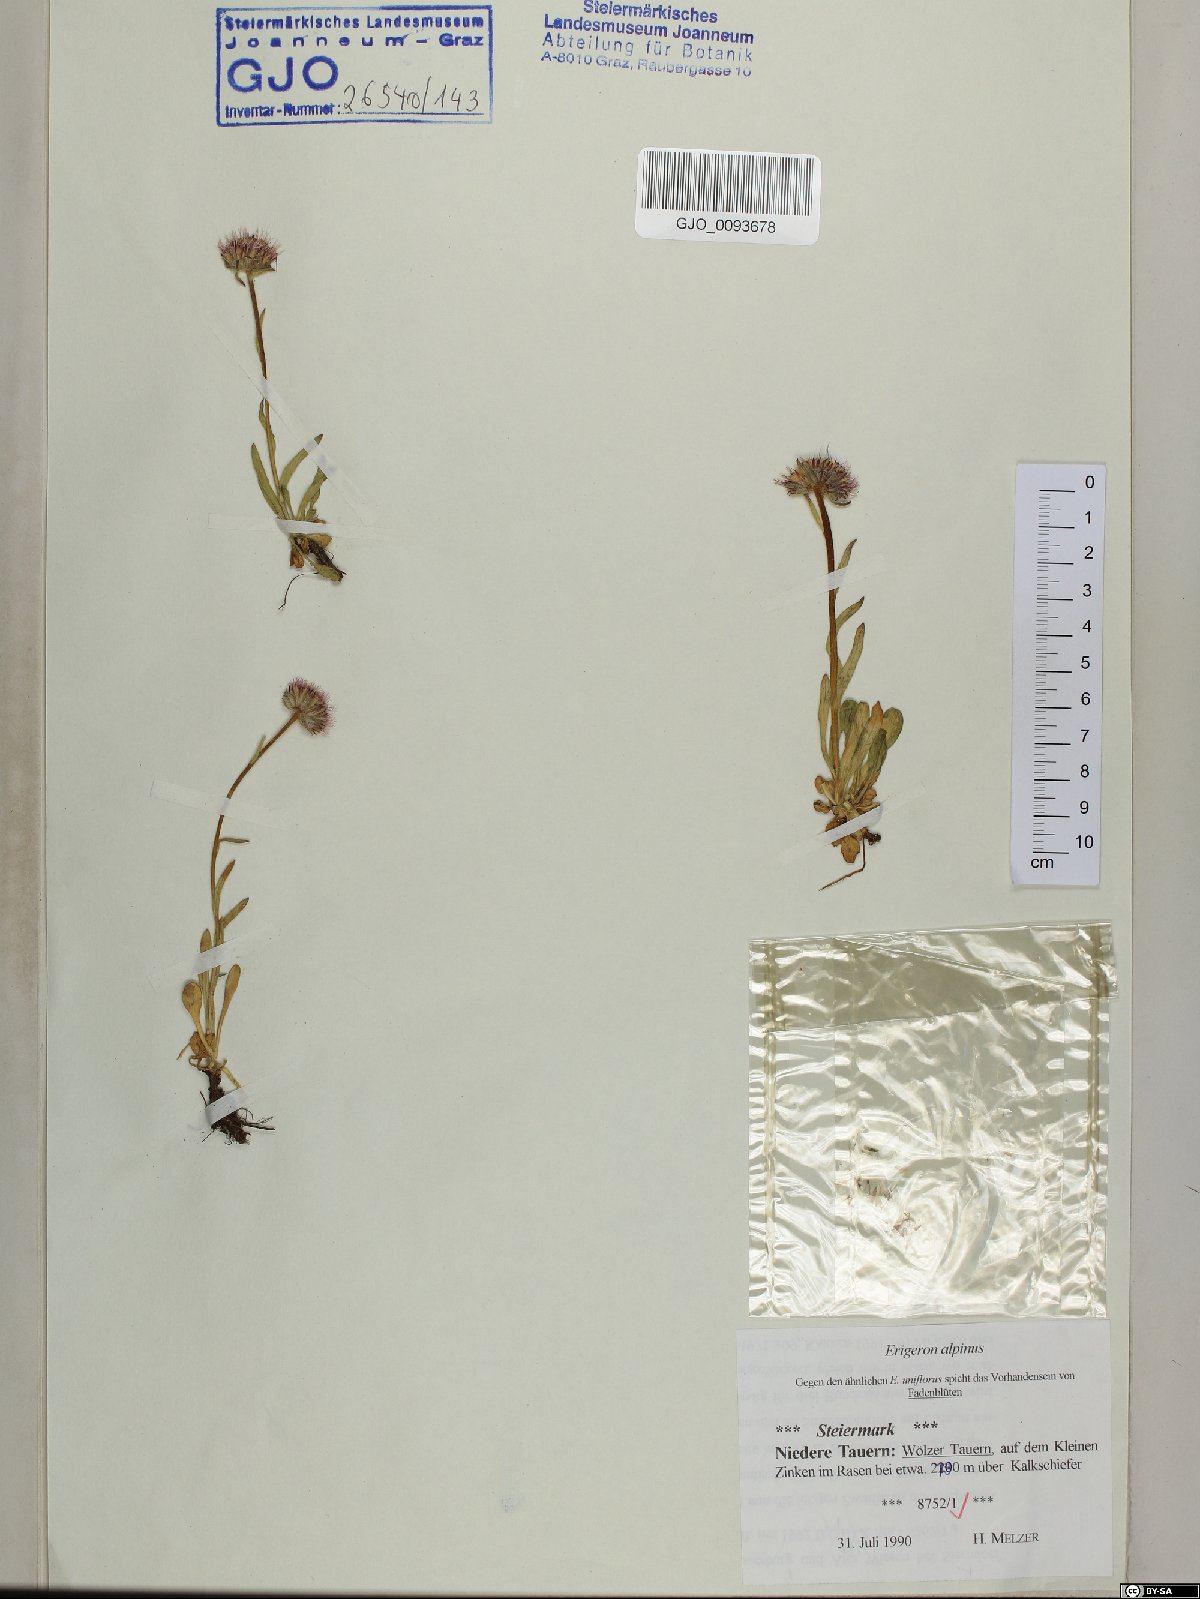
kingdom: Plantae
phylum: Tracheophyta
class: Magnoliopsida
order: Asterales
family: Asteraceae
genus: Erigeron
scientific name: Erigeron alpinus
